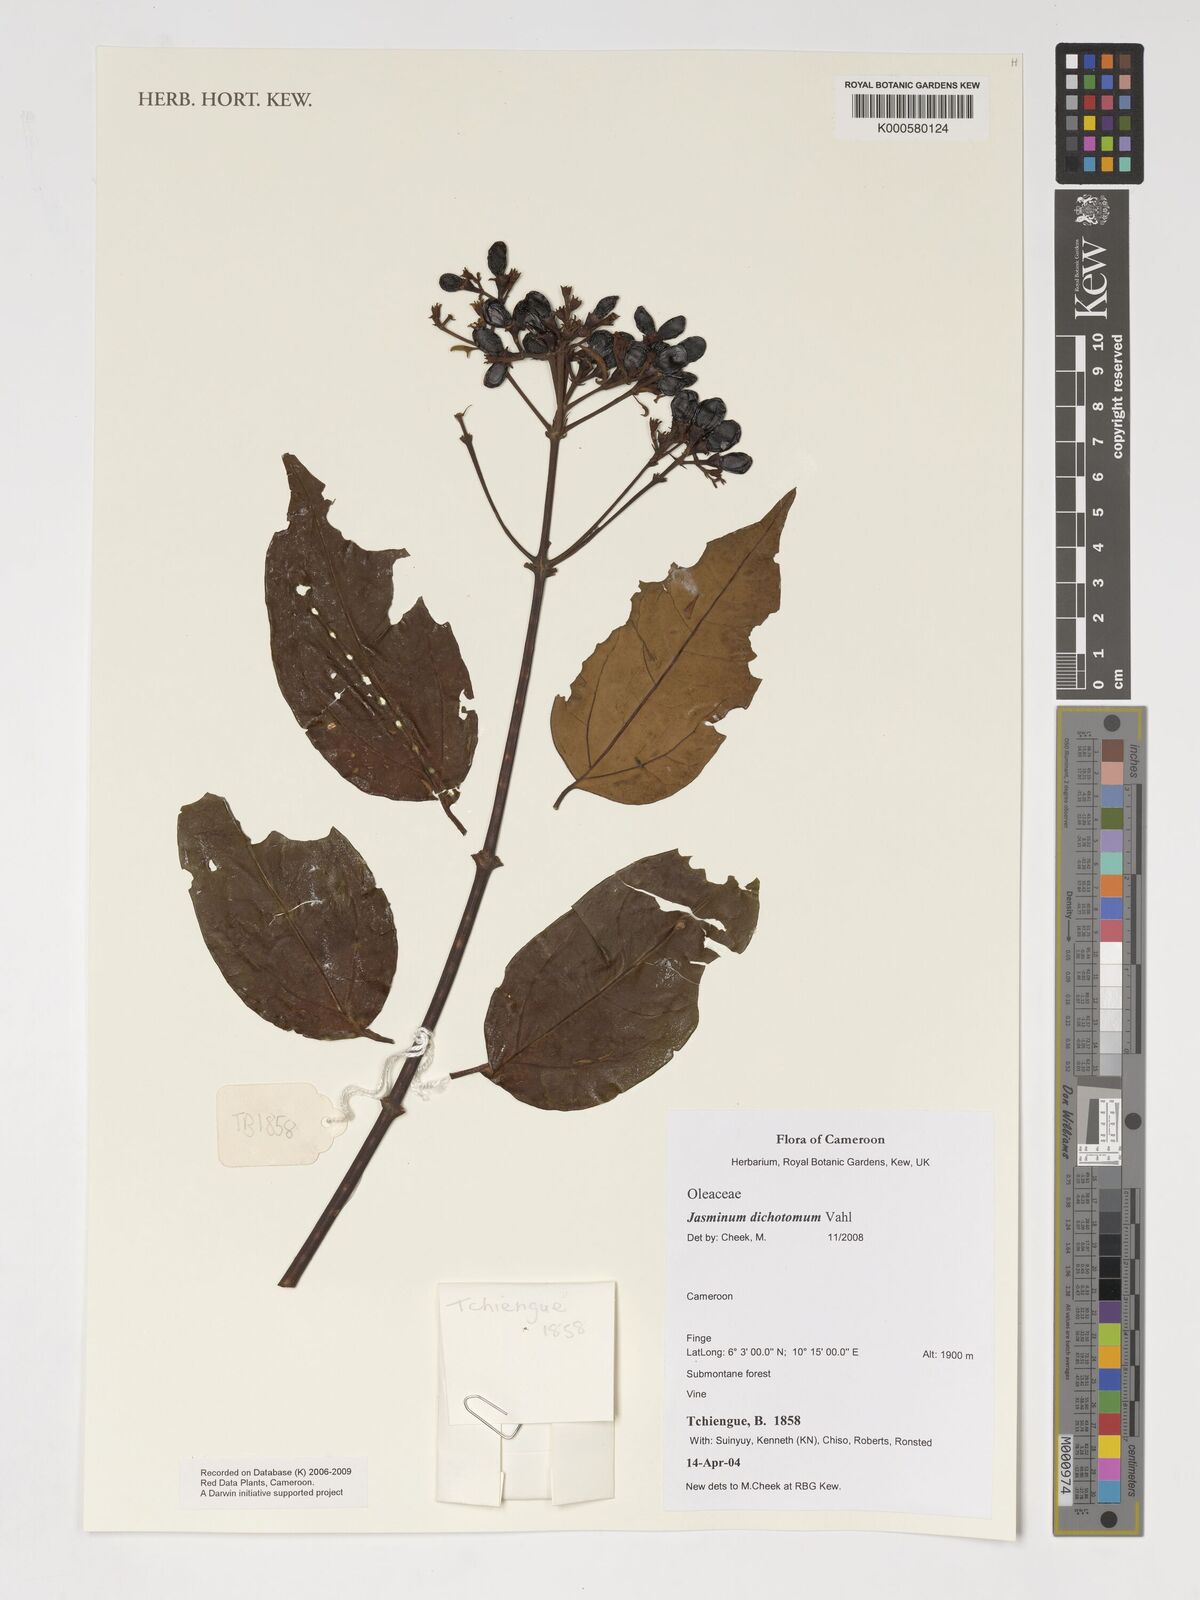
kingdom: Plantae
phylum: Tracheophyta
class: Magnoliopsida
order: Lamiales
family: Oleaceae
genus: Jasminum
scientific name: Jasminum dichotomum
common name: Gold coast jasmine
